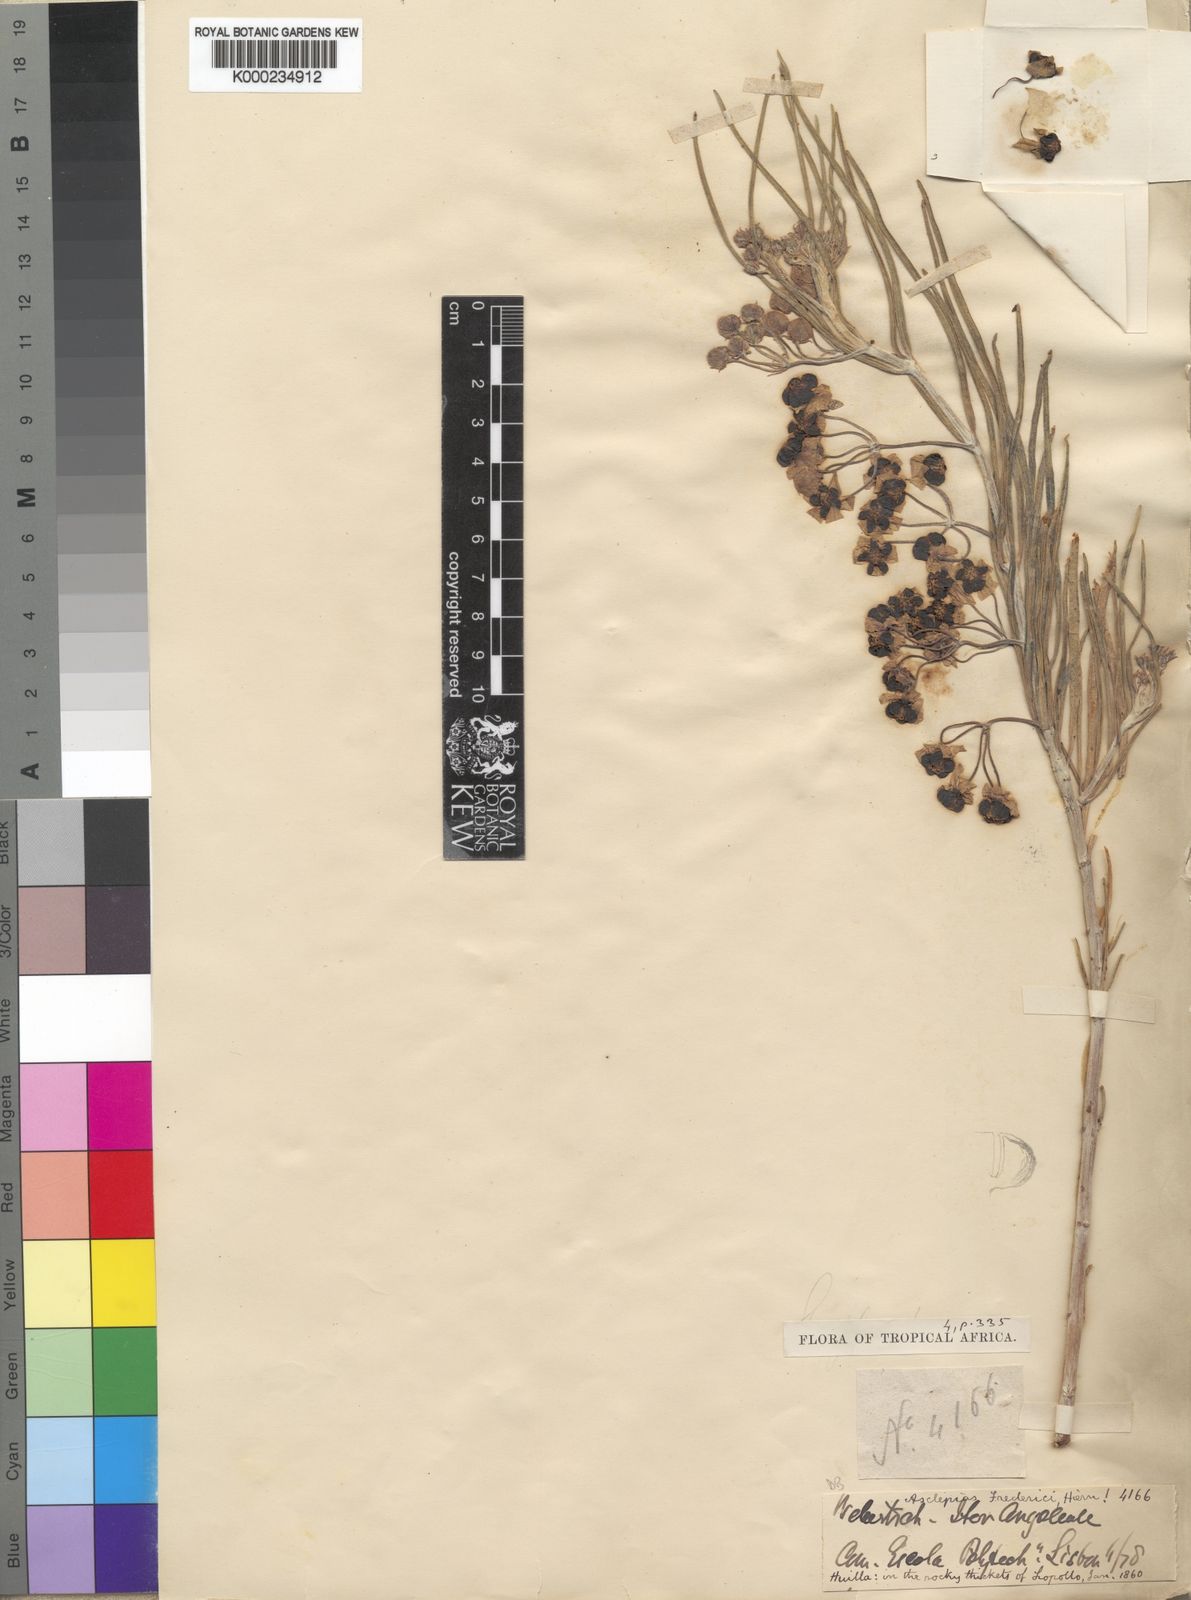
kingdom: Plantae
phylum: Tracheophyta
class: Magnoliopsida
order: Gentianales
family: Apocynaceae
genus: Gomphocarpus
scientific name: Gomphocarpus tomentosus
